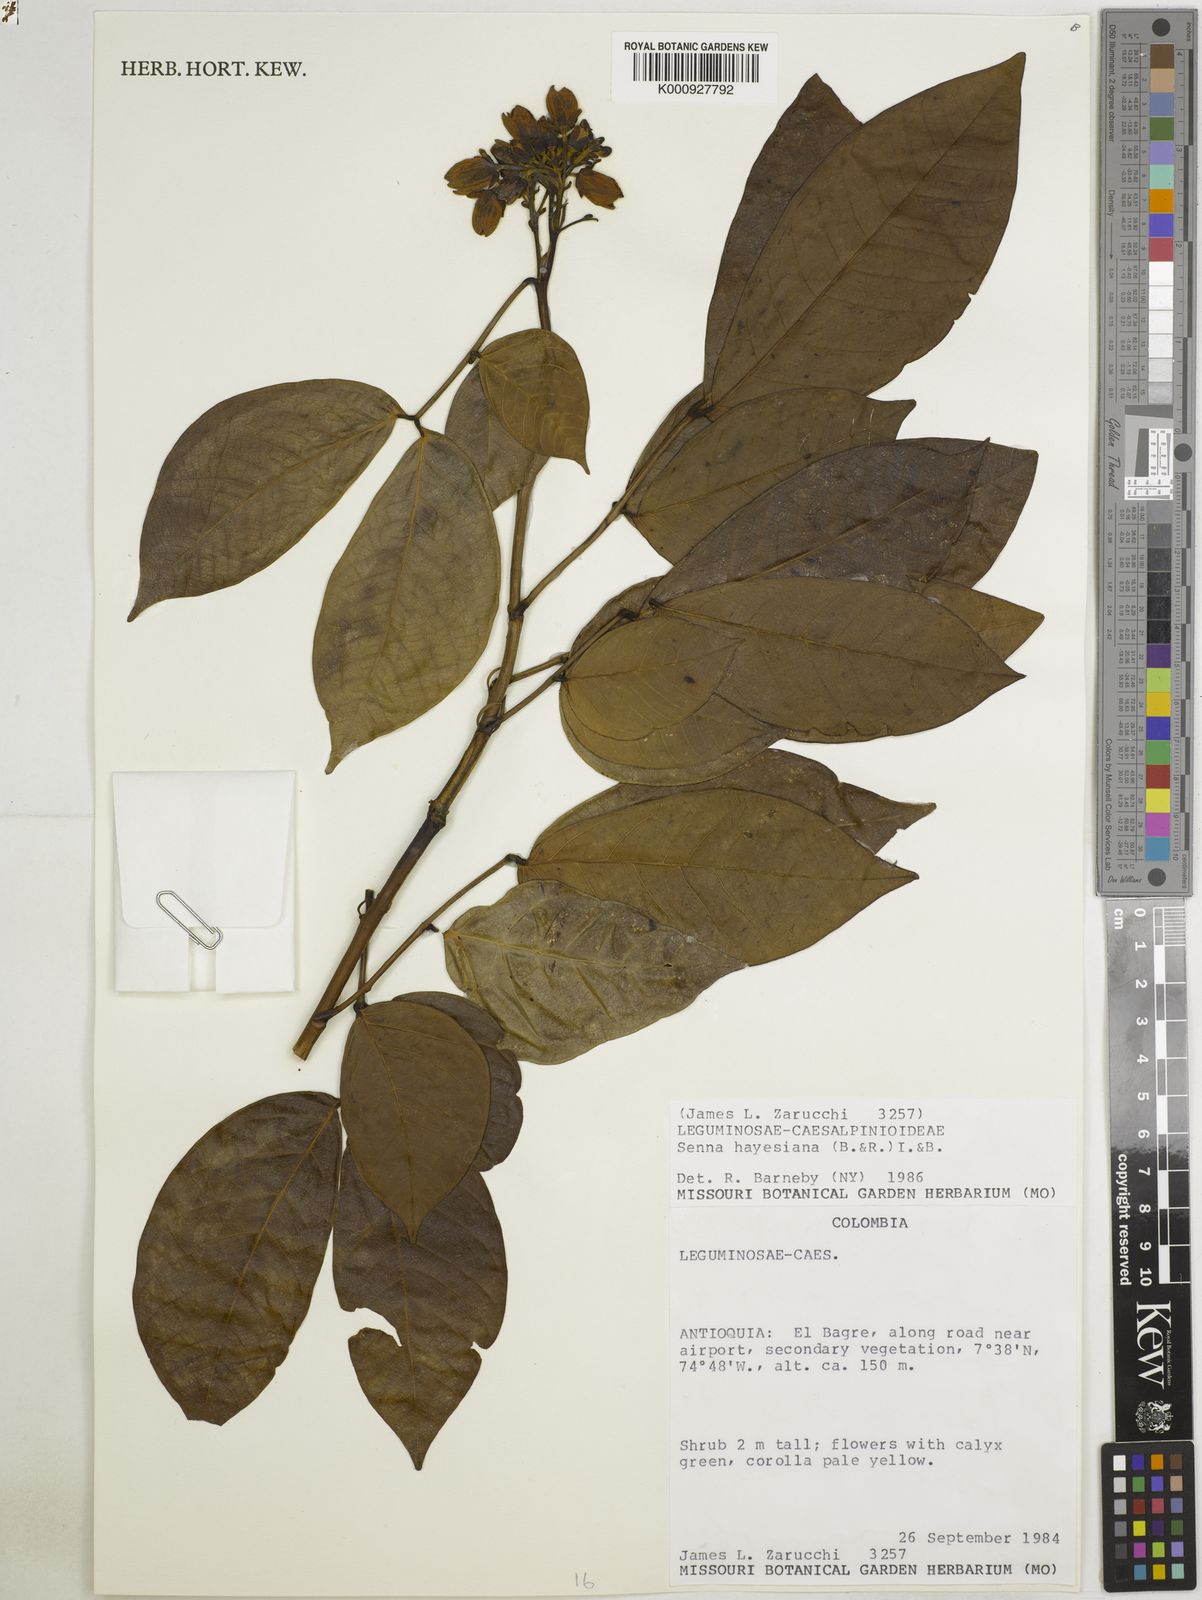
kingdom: Plantae
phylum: Tracheophyta
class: Magnoliopsida
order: Fabales
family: Fabaceae
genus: Senna
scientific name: Senna hayesiana
